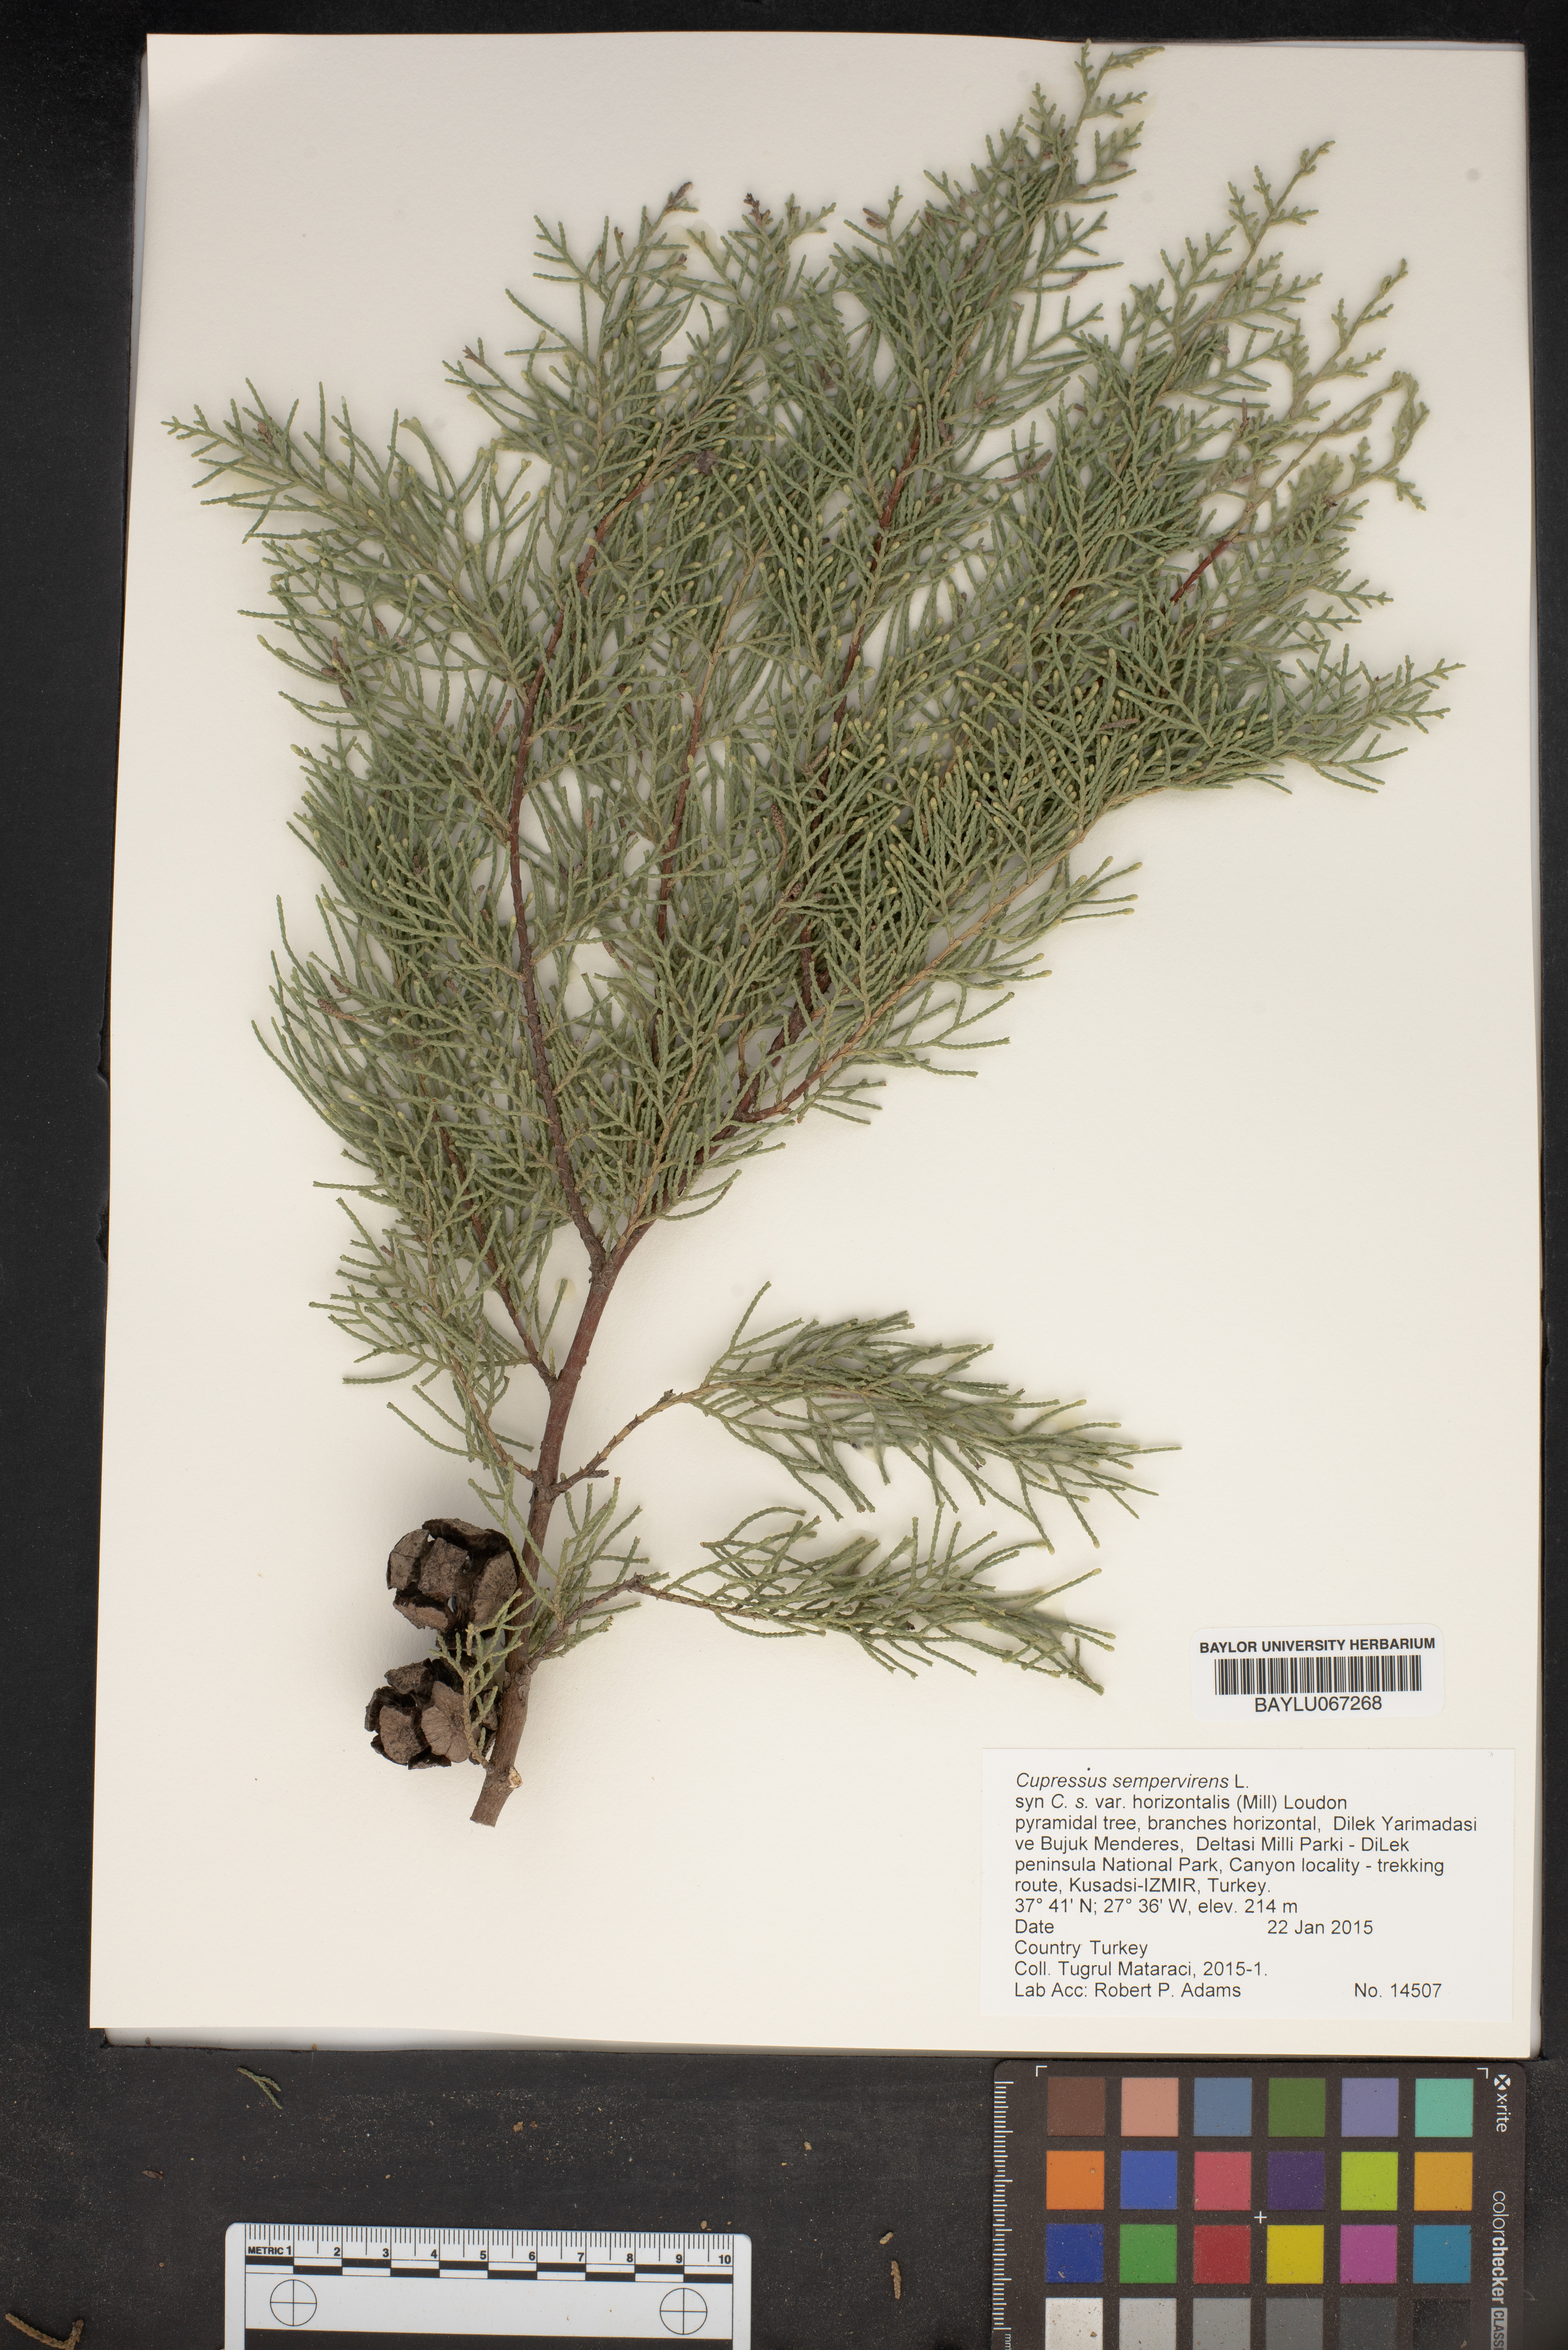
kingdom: Plantae
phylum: Tracheophyta
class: Pinopsida
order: Pinales
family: Cupressaceae
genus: Cupressus
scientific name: Cupressus sempervirens
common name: Italian cypress
